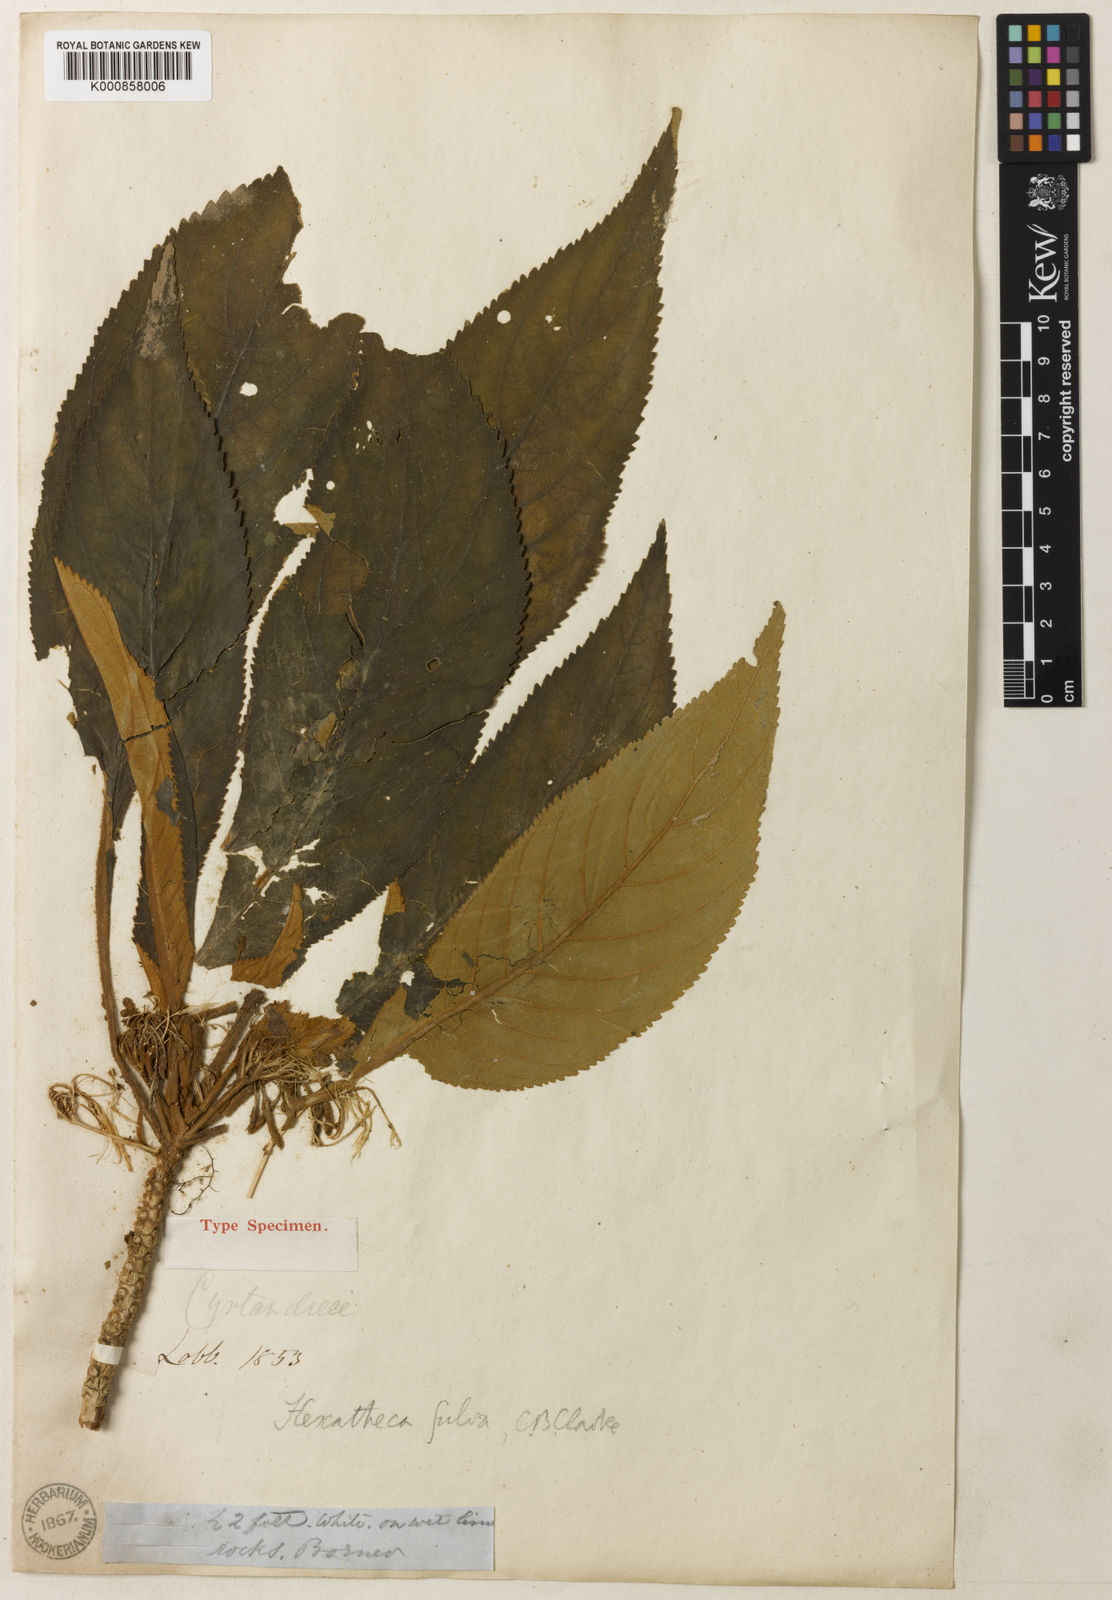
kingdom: Plantae
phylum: Tracheophyta
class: Magnoliopsida
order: Lamiales
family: Gesneriaceae
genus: Hexatheca
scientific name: Hexatheca fulva
